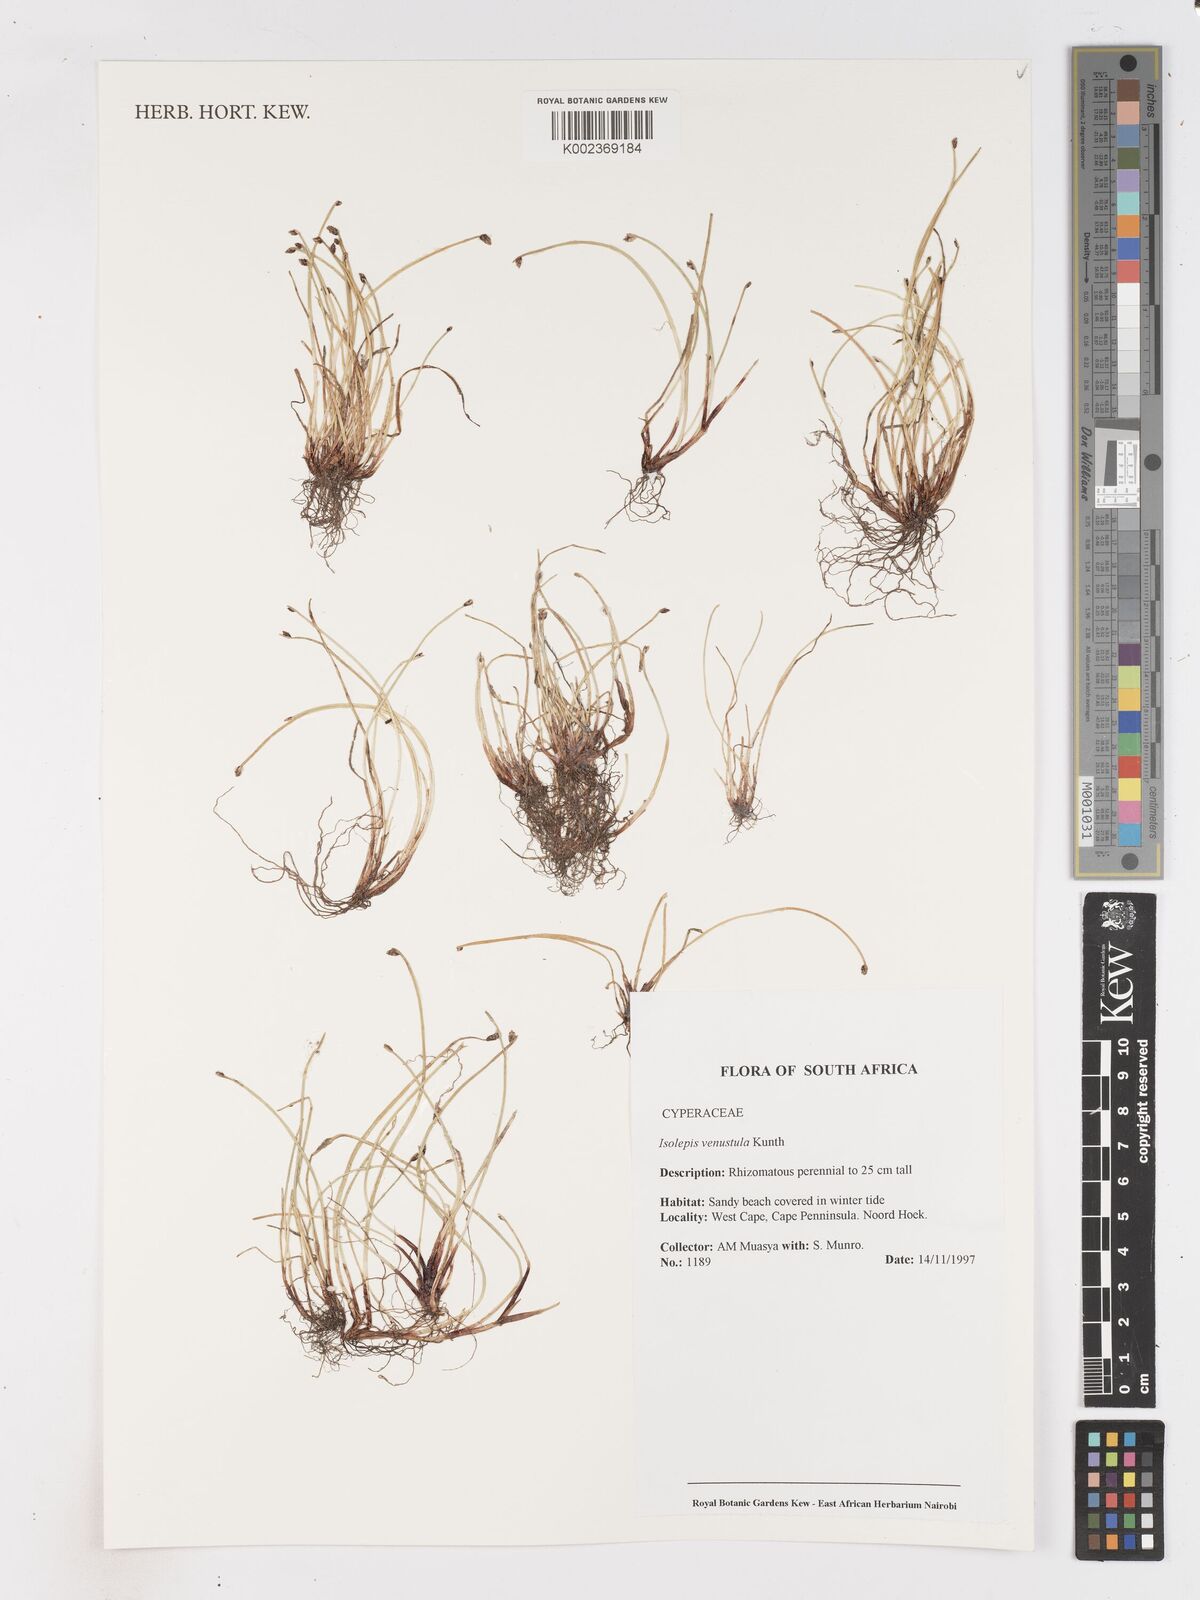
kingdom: Plantae
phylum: Tracheophyta
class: Liliopsida
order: Poales
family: Cyperaceae
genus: Isolepis
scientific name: Isolepis venustula
